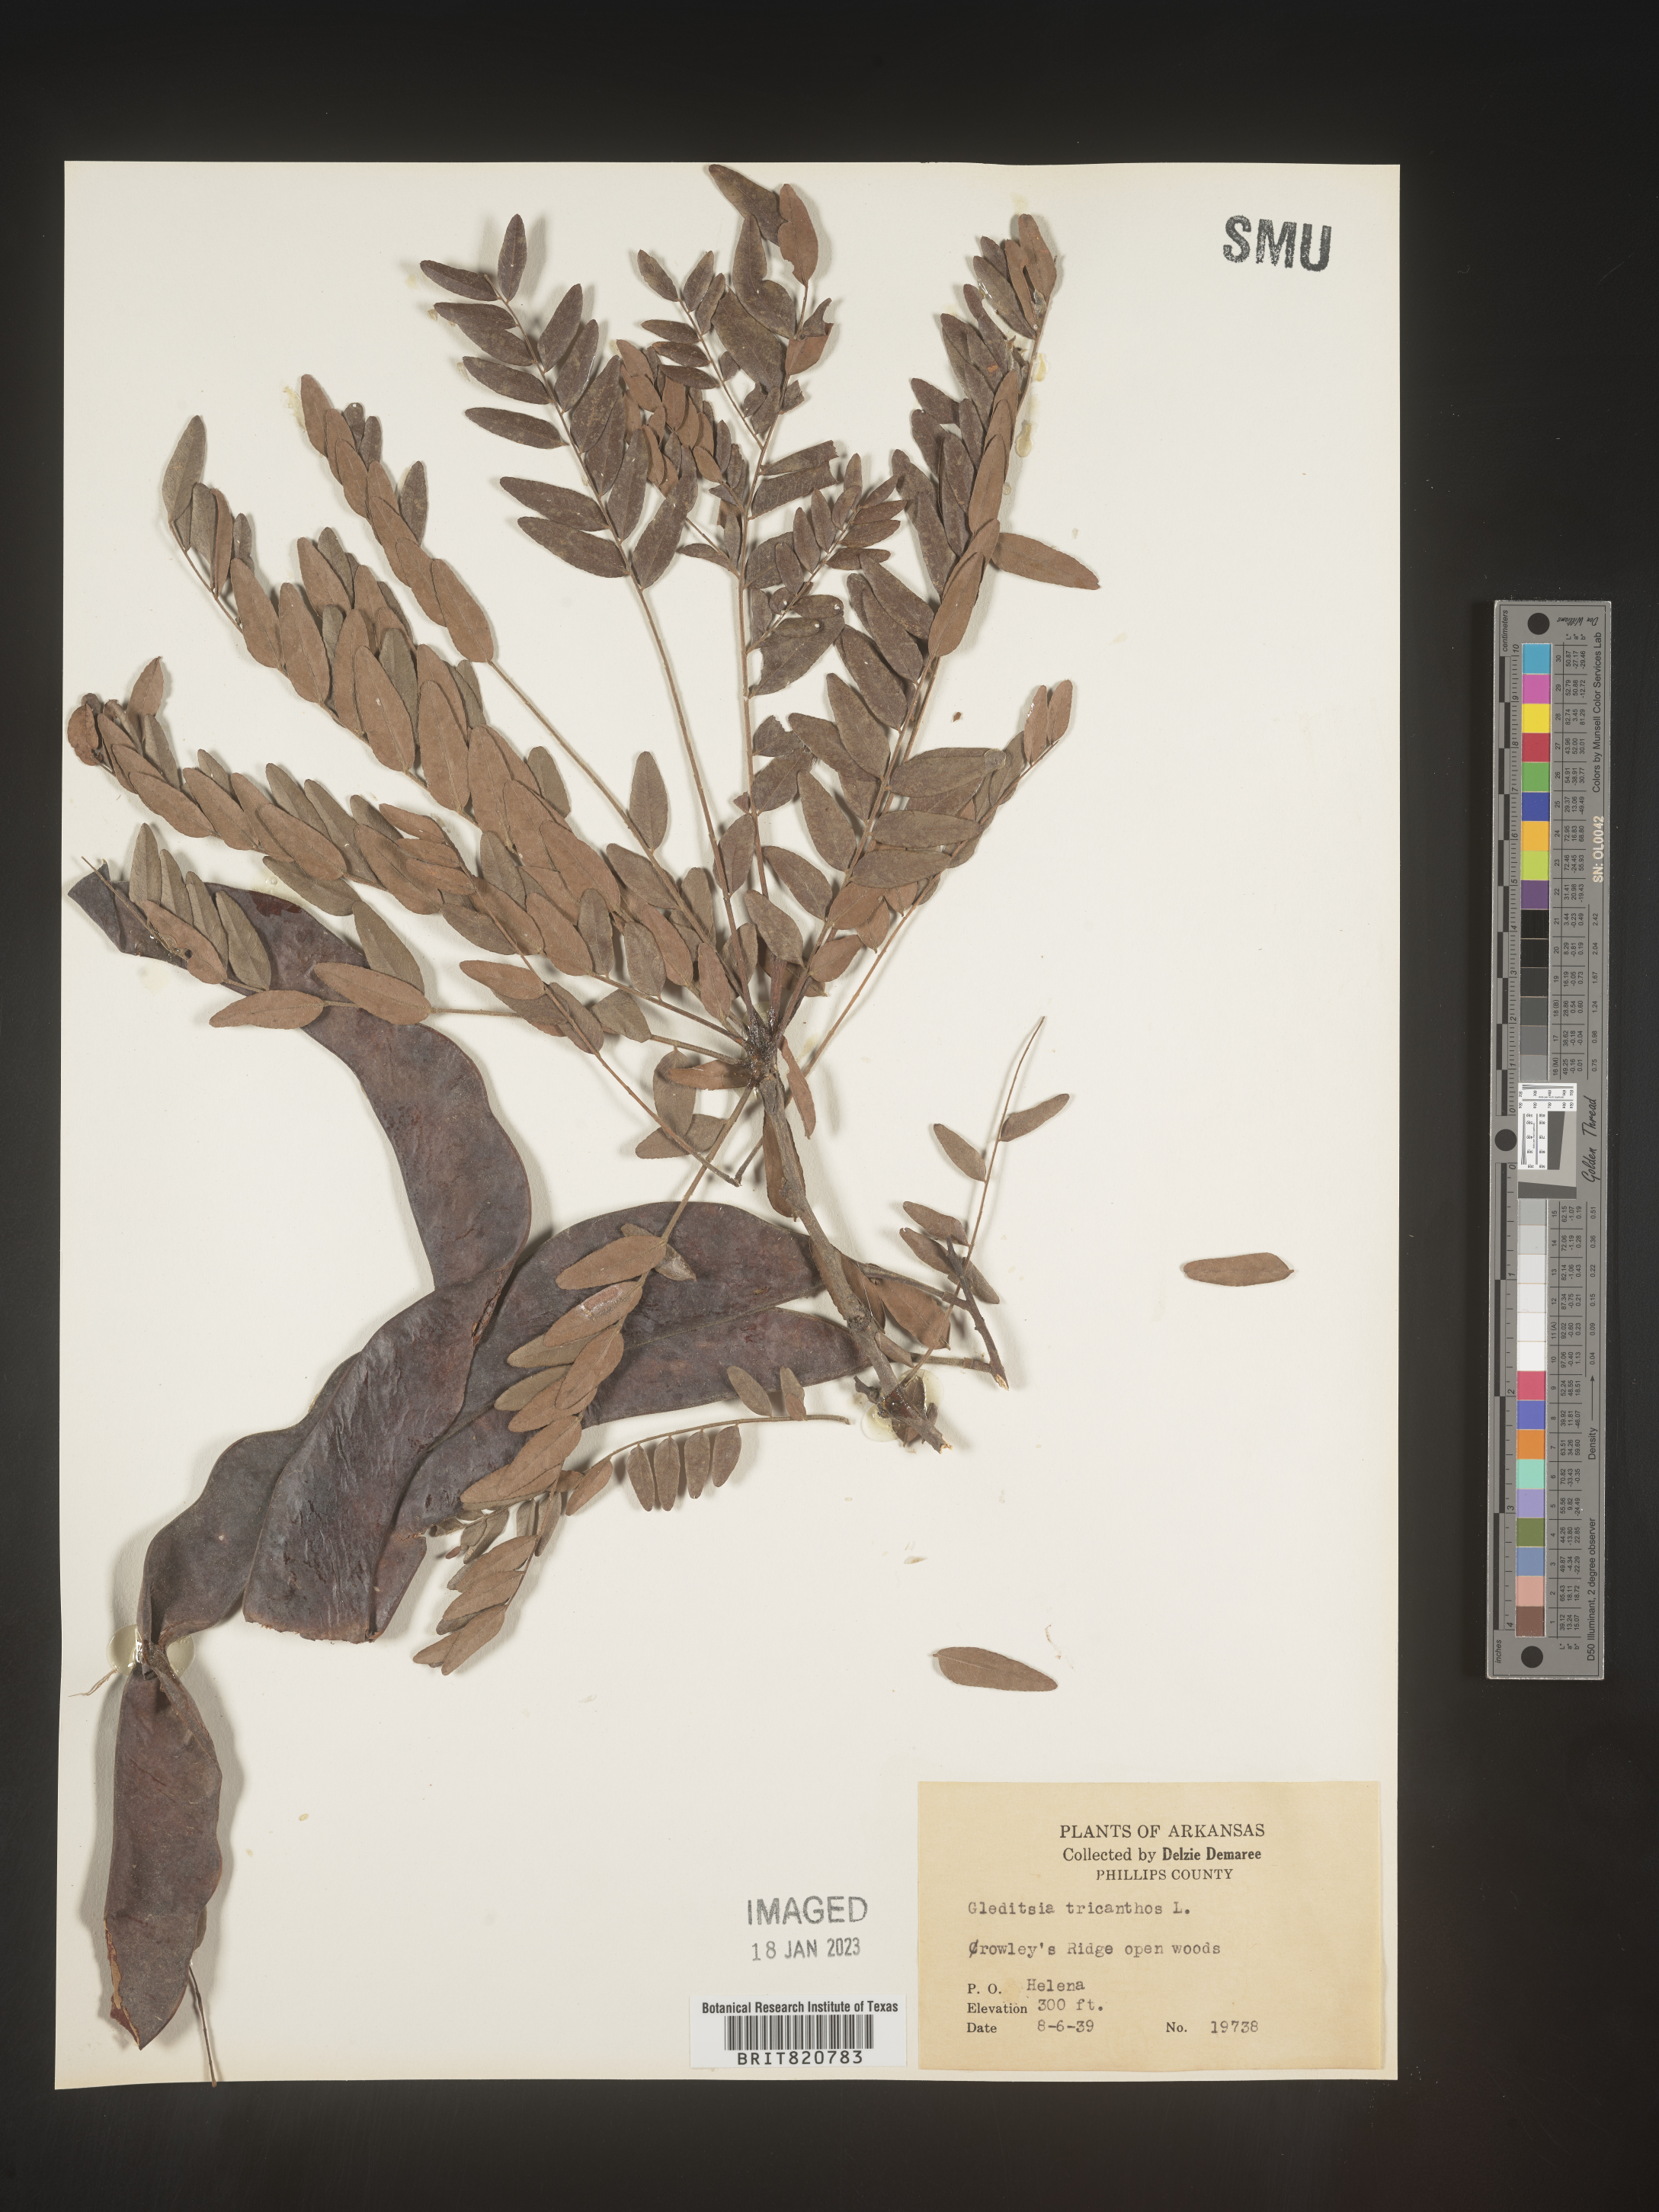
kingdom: Plantae
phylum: Tracheophyta
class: Magnoliopsida
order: Fabales
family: Fabaceae
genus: Gleditsia
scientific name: Gleditsia triacanthos
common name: Common honeylocust
